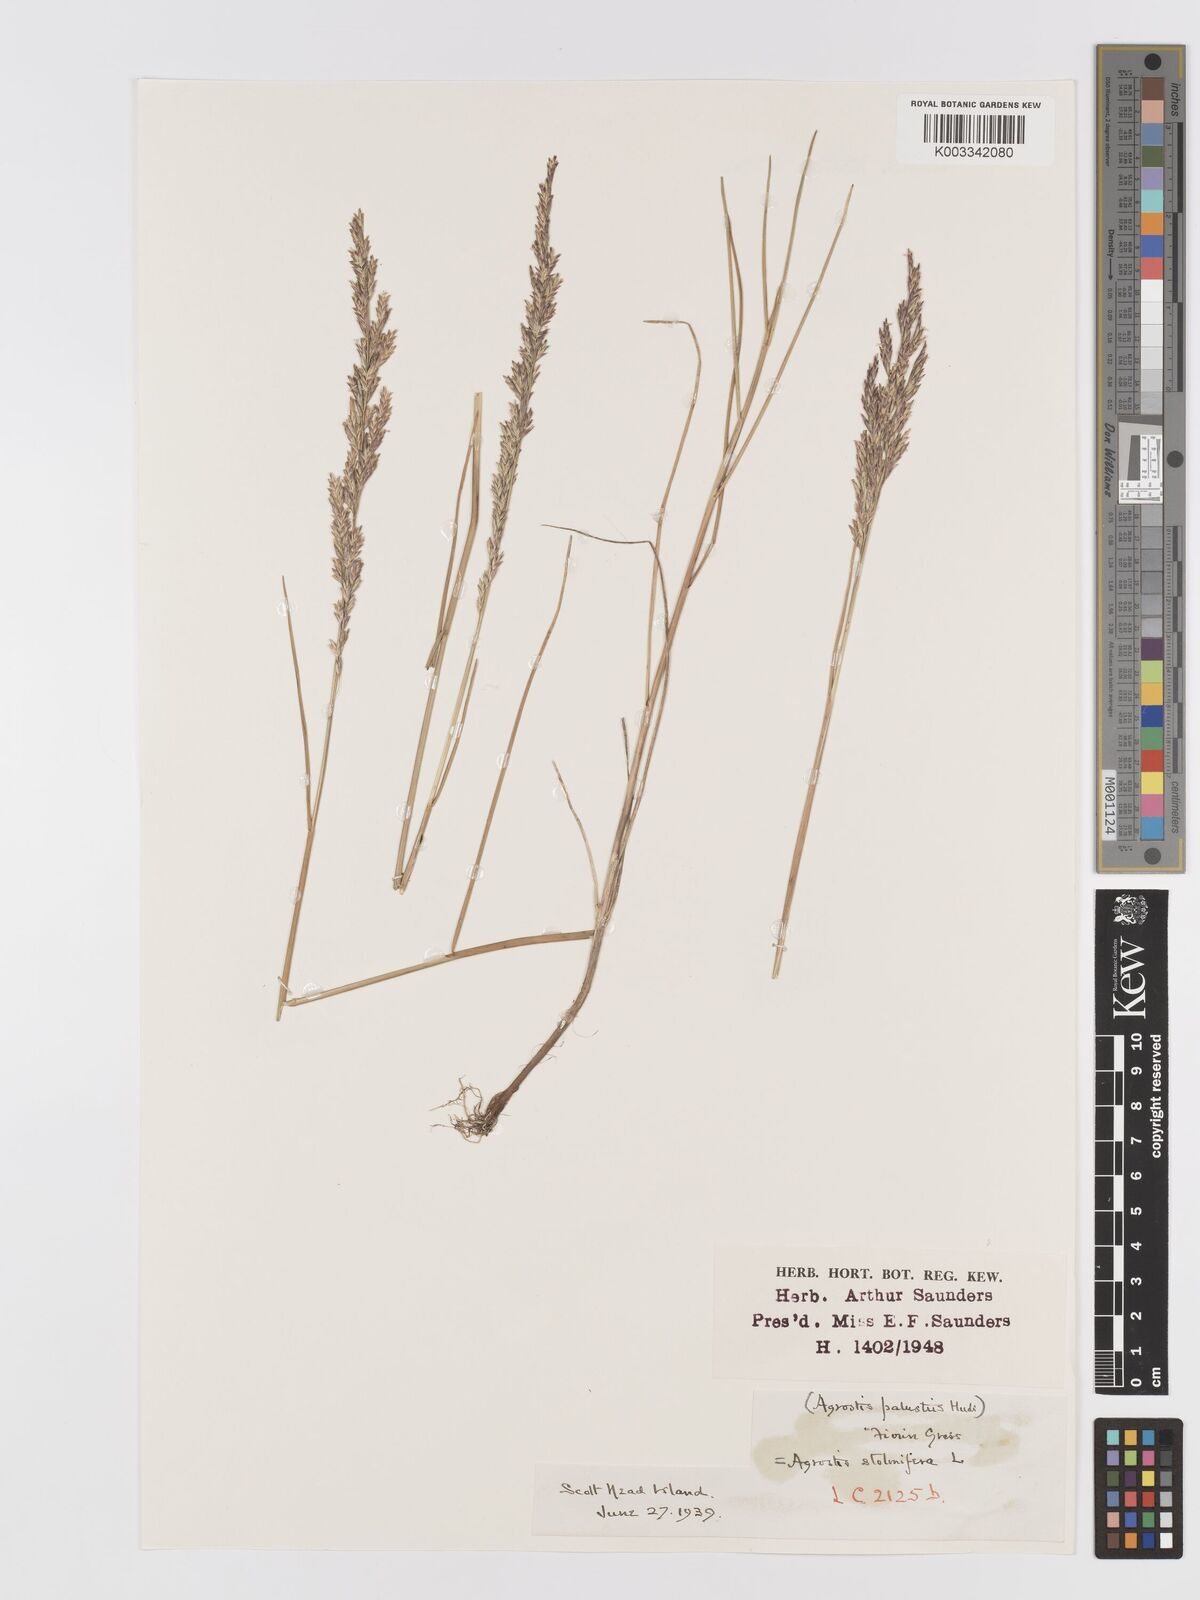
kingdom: Plantae
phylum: Tracheophyta
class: Liliopsida
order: Poales
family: Poaceae
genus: Agrostis
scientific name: Agrostis stolonifera
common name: Creeping bentgrass
